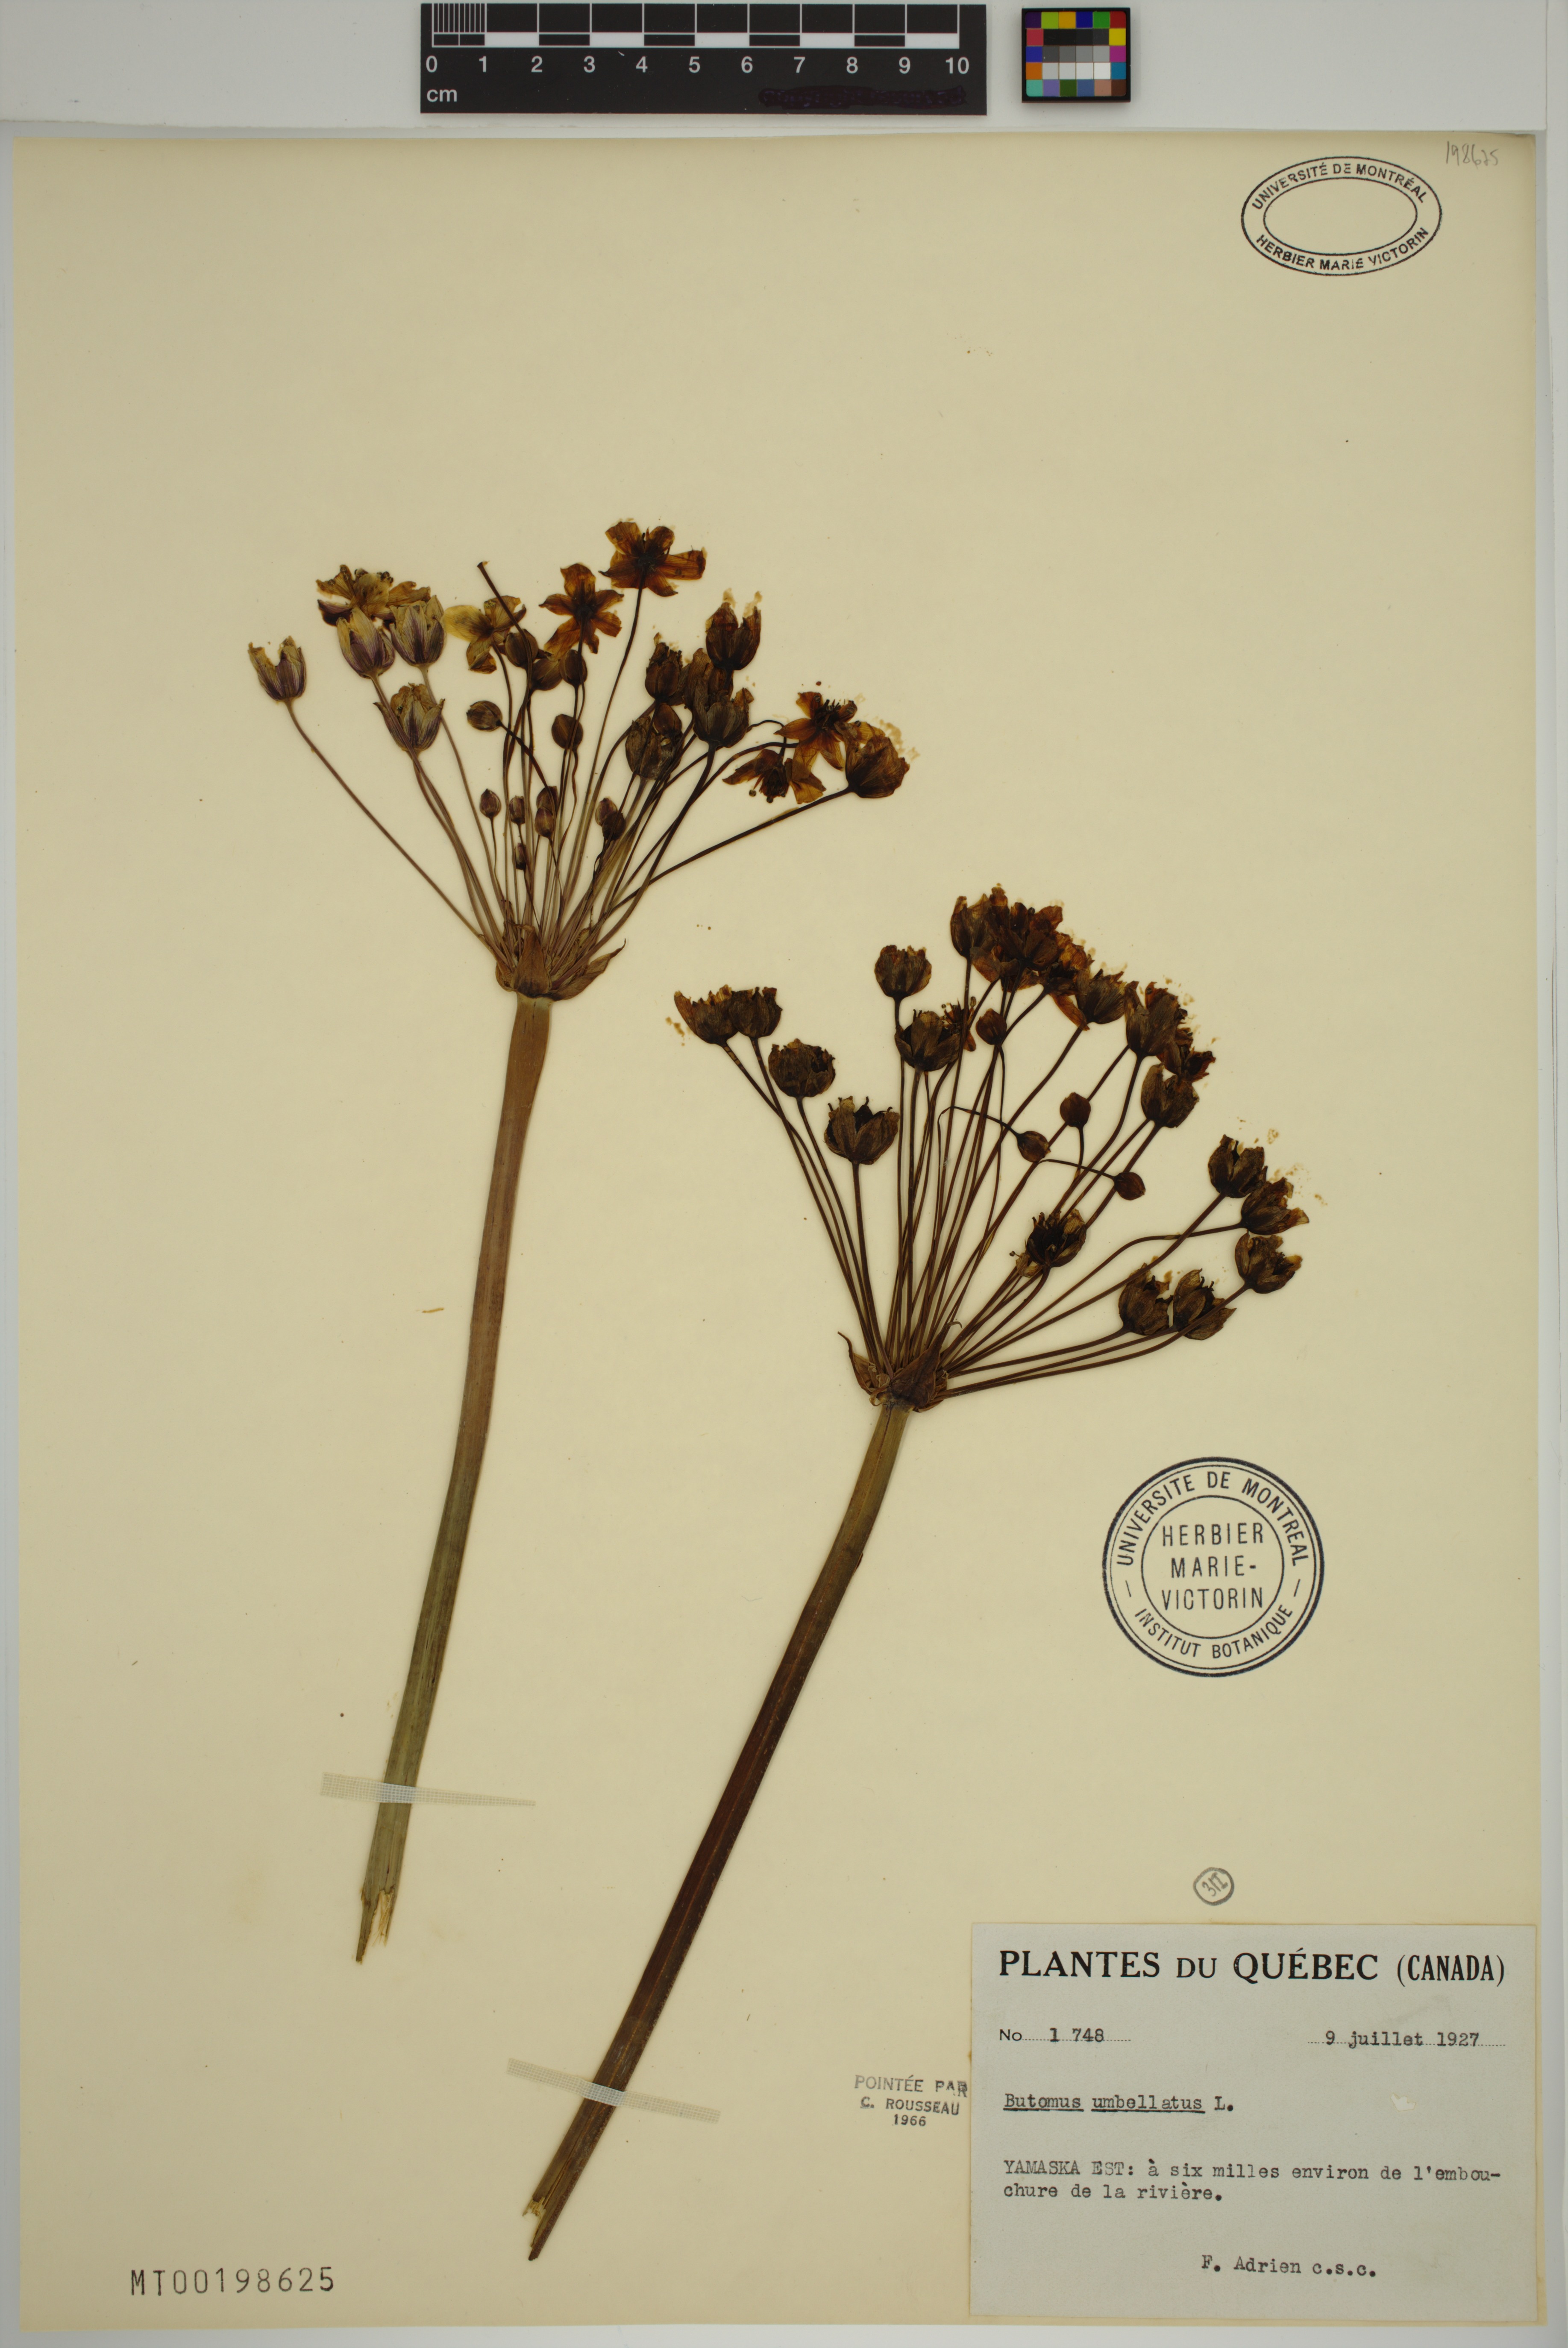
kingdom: Plantae
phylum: Tracheophyta
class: Liliopsida
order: Alismatales
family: Butomaceae
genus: Butomus
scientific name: Butomus umbellatus
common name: Flowering-rush
